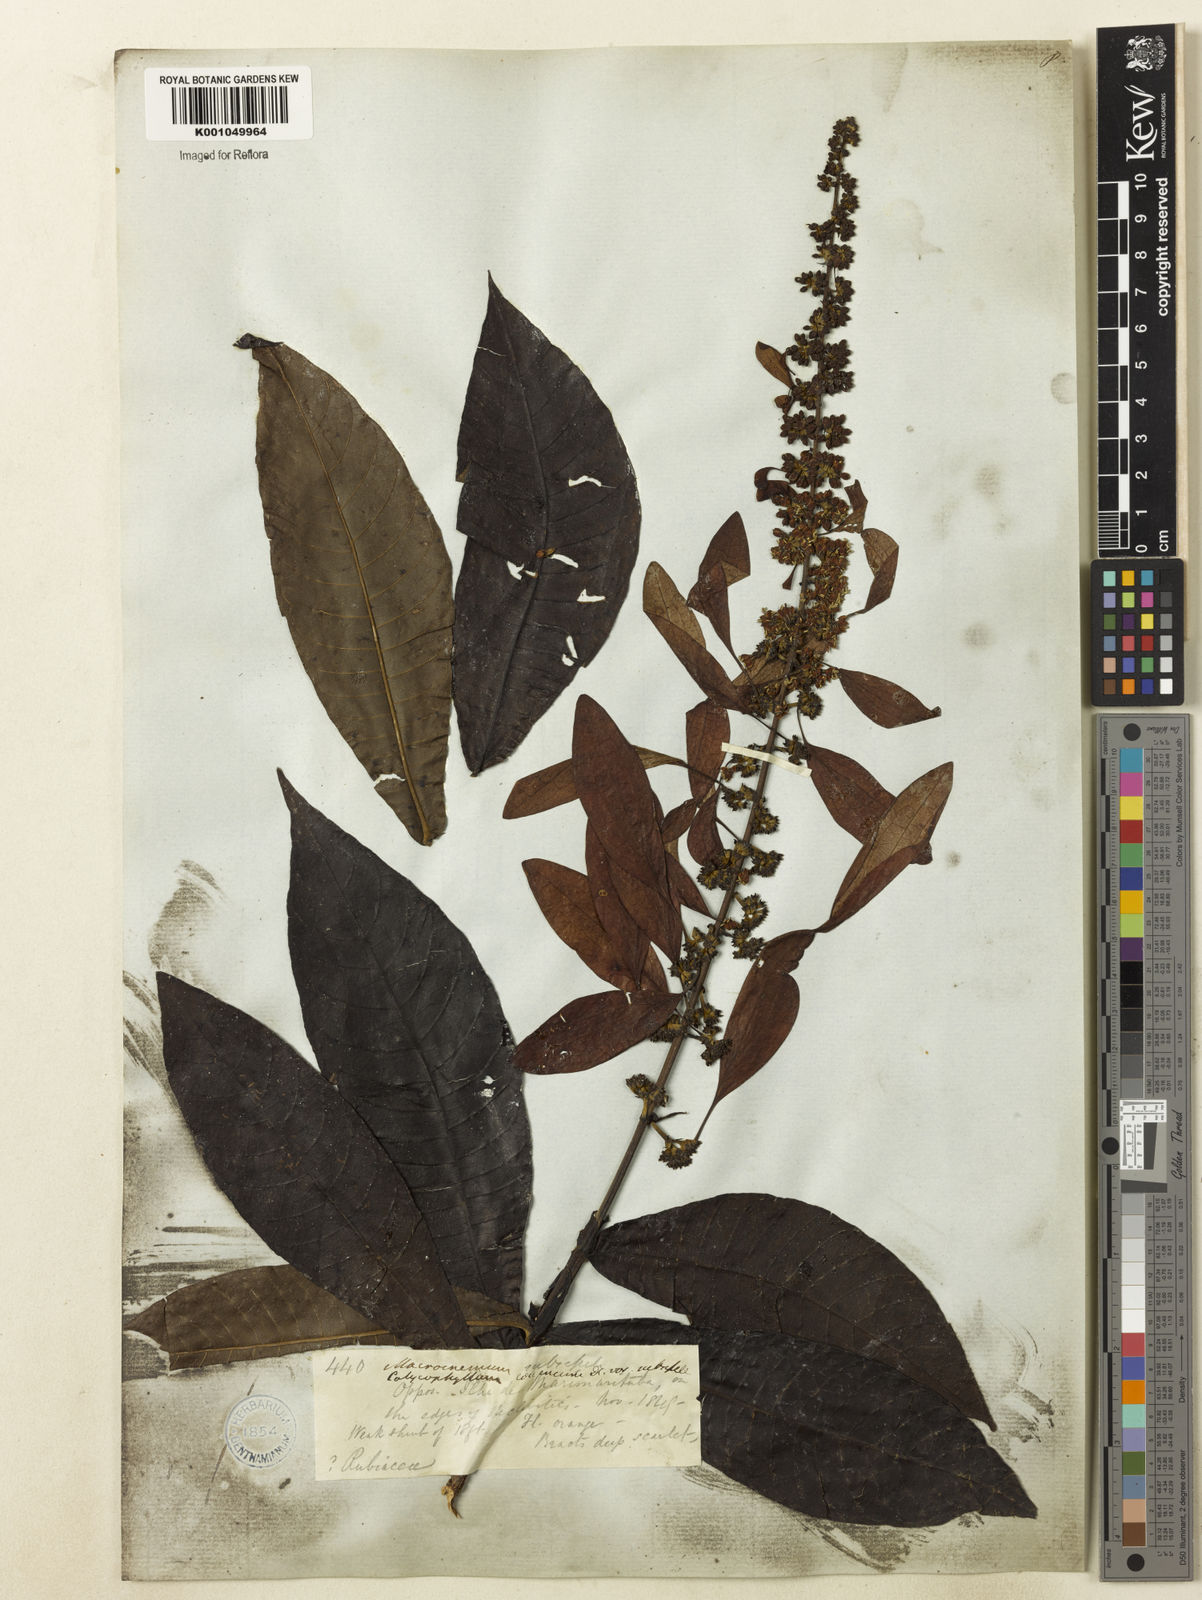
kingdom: Plantae
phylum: Tracheophyta
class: Magnoliopsida
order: Gentianales
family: Rubiaceae
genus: Warszewiczia
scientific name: Warszewiczia coccinea
